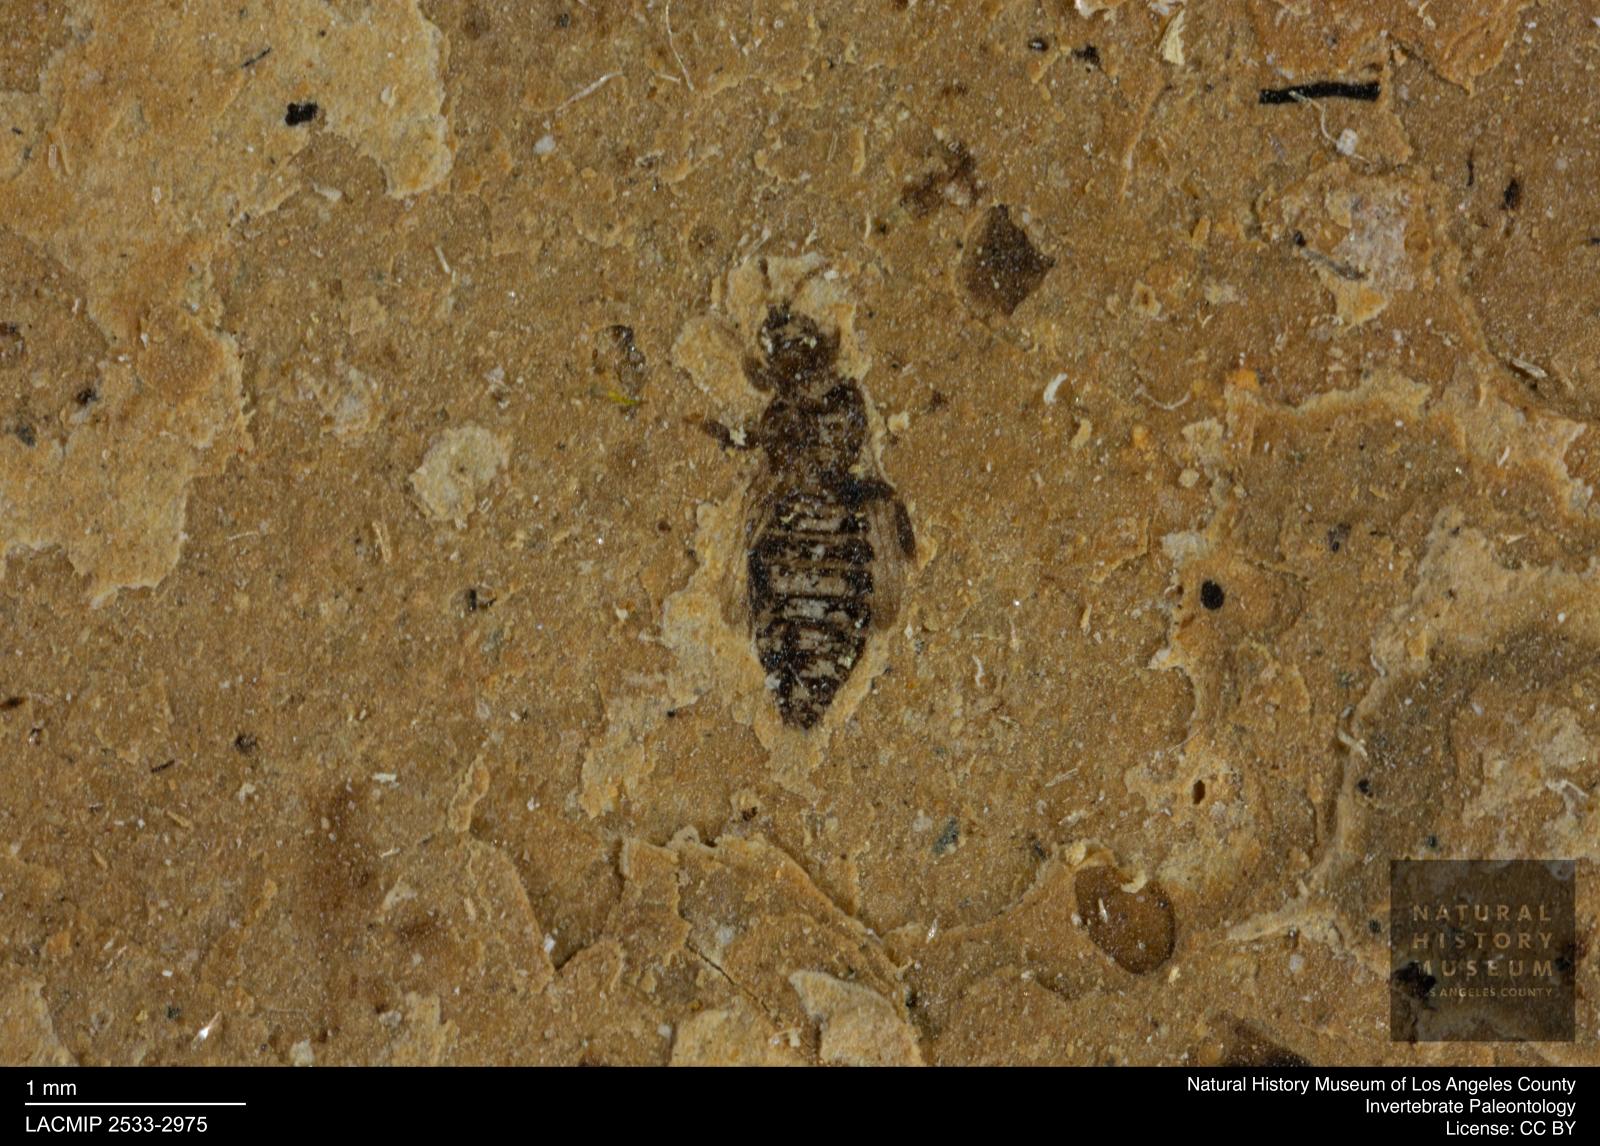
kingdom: Animalia
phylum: Arthropoda
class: Insecta
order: Thysanoptera
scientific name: Thysanoptera
